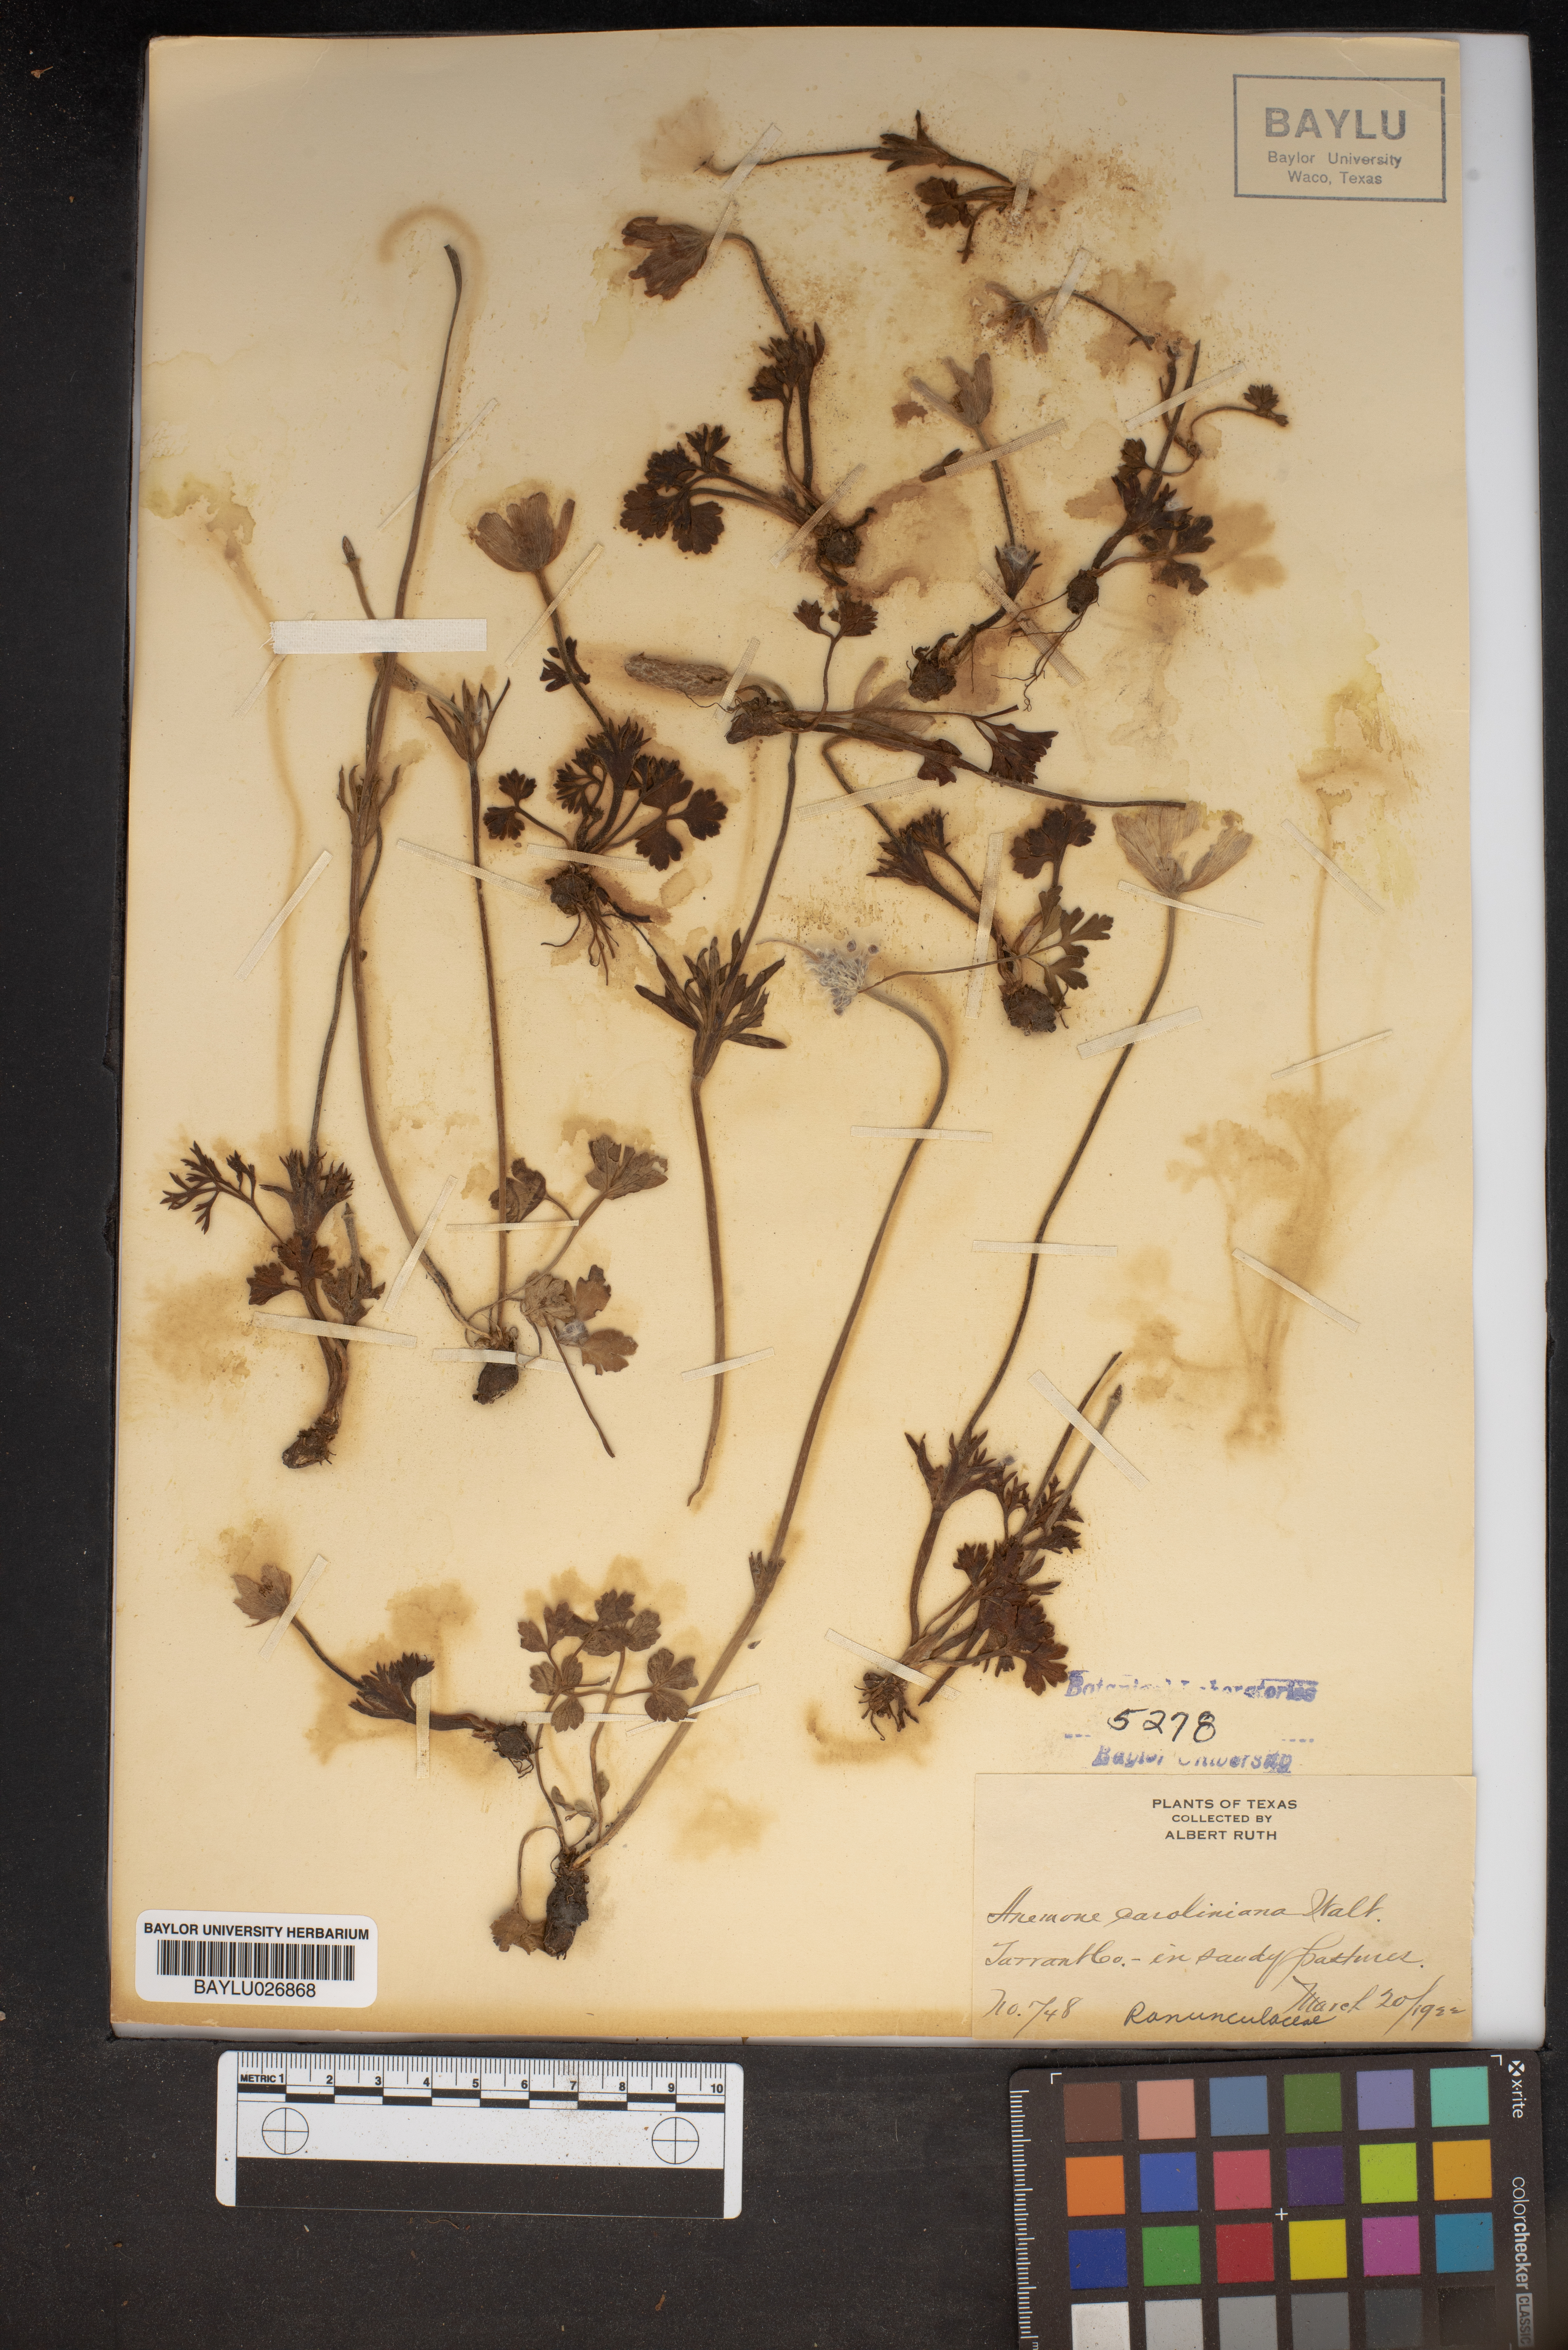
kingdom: Plantae
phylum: Tracheophyta
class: Magnoliopsida
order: Ranunculales
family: Ranunculaceae
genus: Anemone
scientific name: Anemone caroliniana
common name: Carolina anemone
